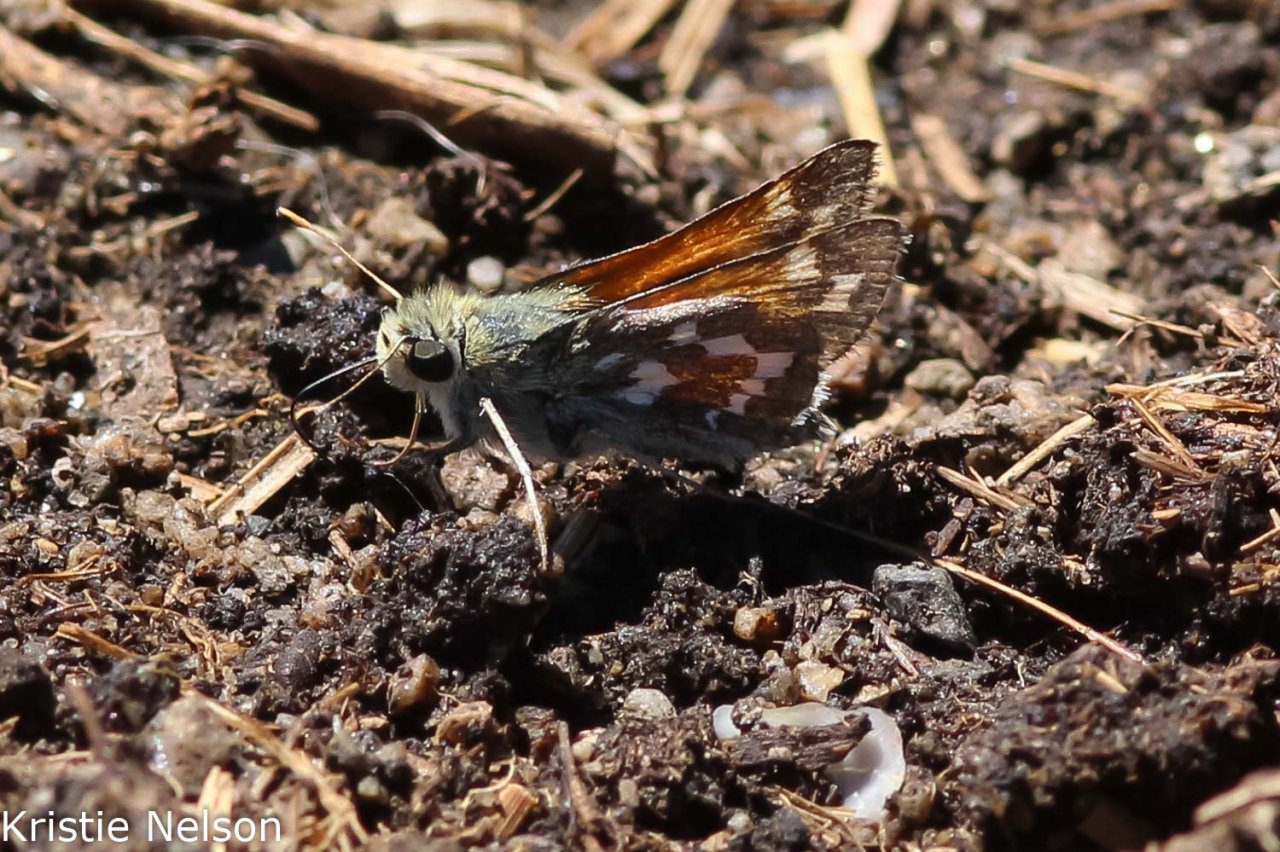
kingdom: Animalia
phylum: Arthropoda
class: Insecta
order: Lepidoptera
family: Hesperiidae
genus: Hesperia
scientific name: Hesperia nevada
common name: Nevada Skipper
